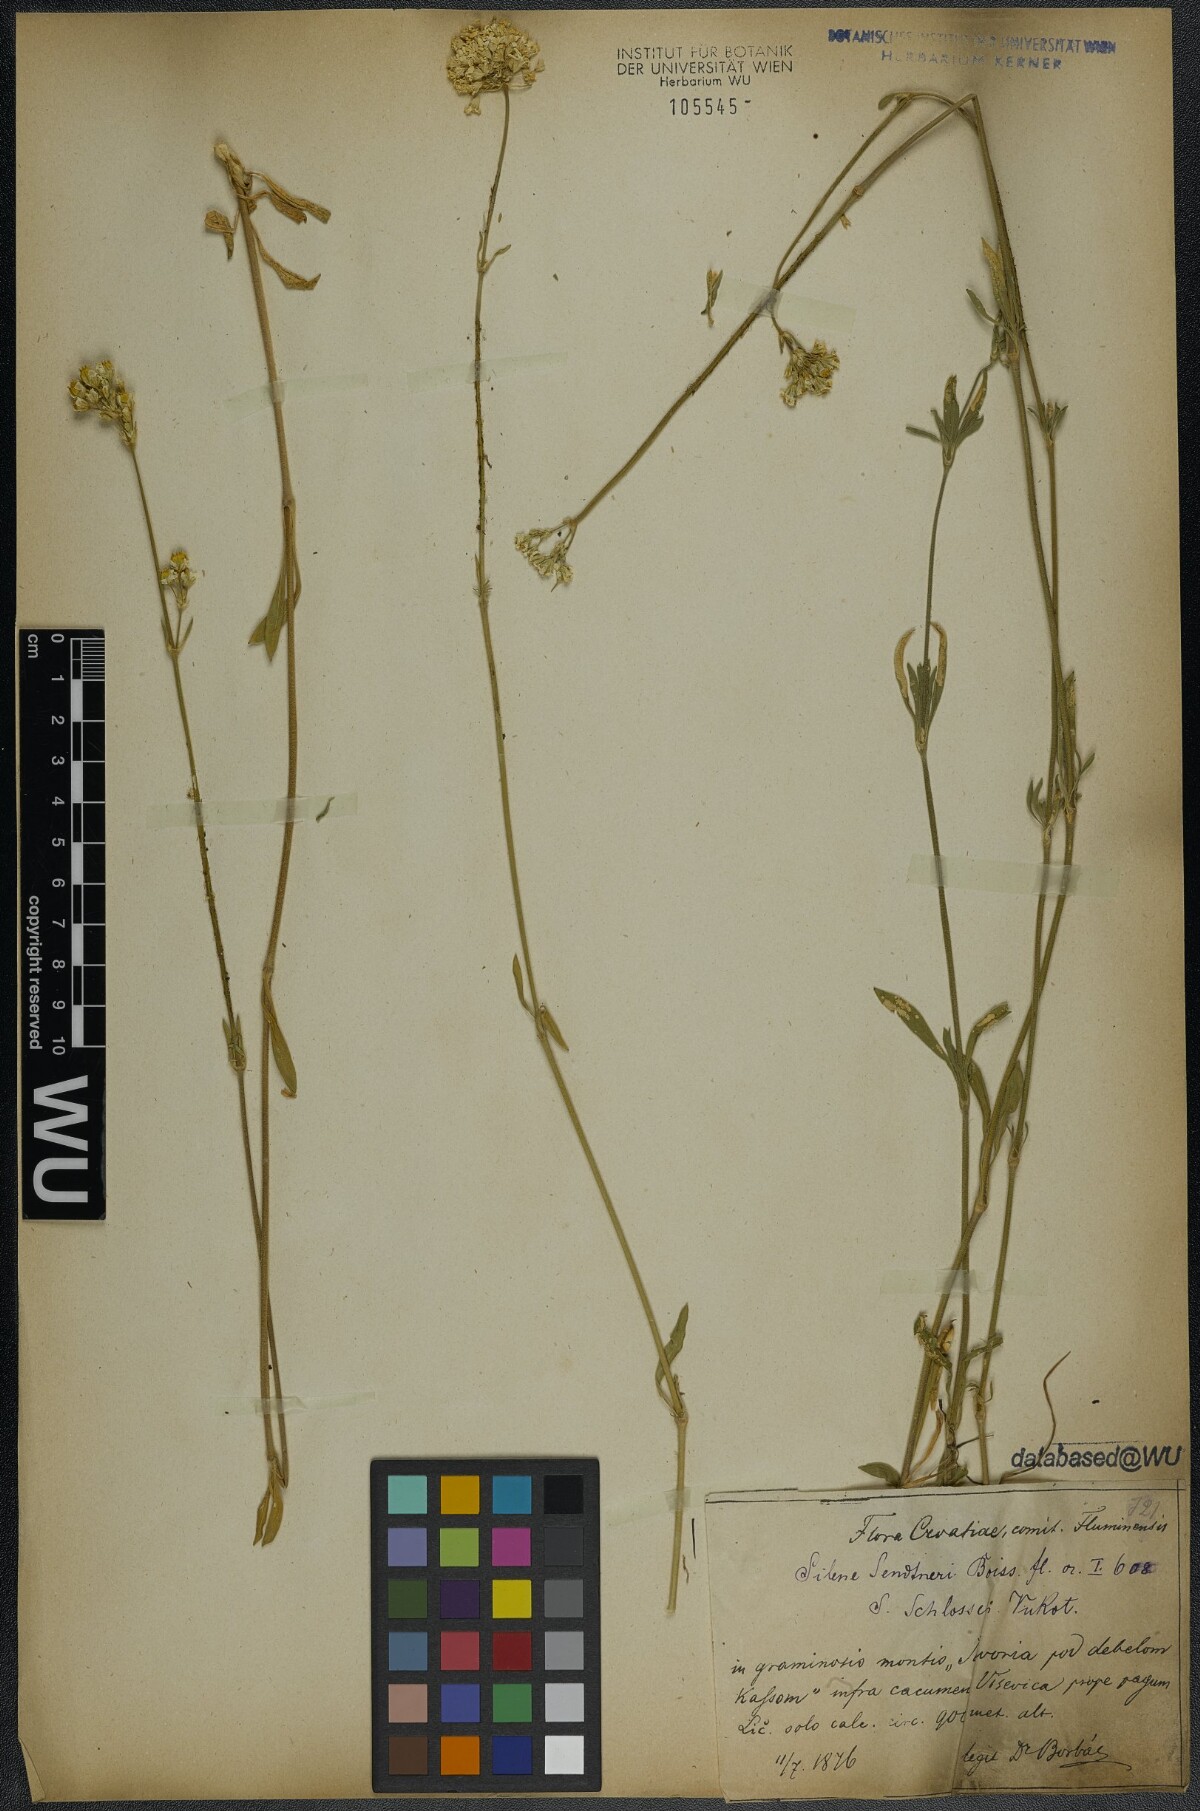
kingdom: Plantae
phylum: Tracheophyta
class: Magnoliopsida
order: Caryophyllales
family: Caryophyllaceae
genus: Silene
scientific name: Silene sendtneri
